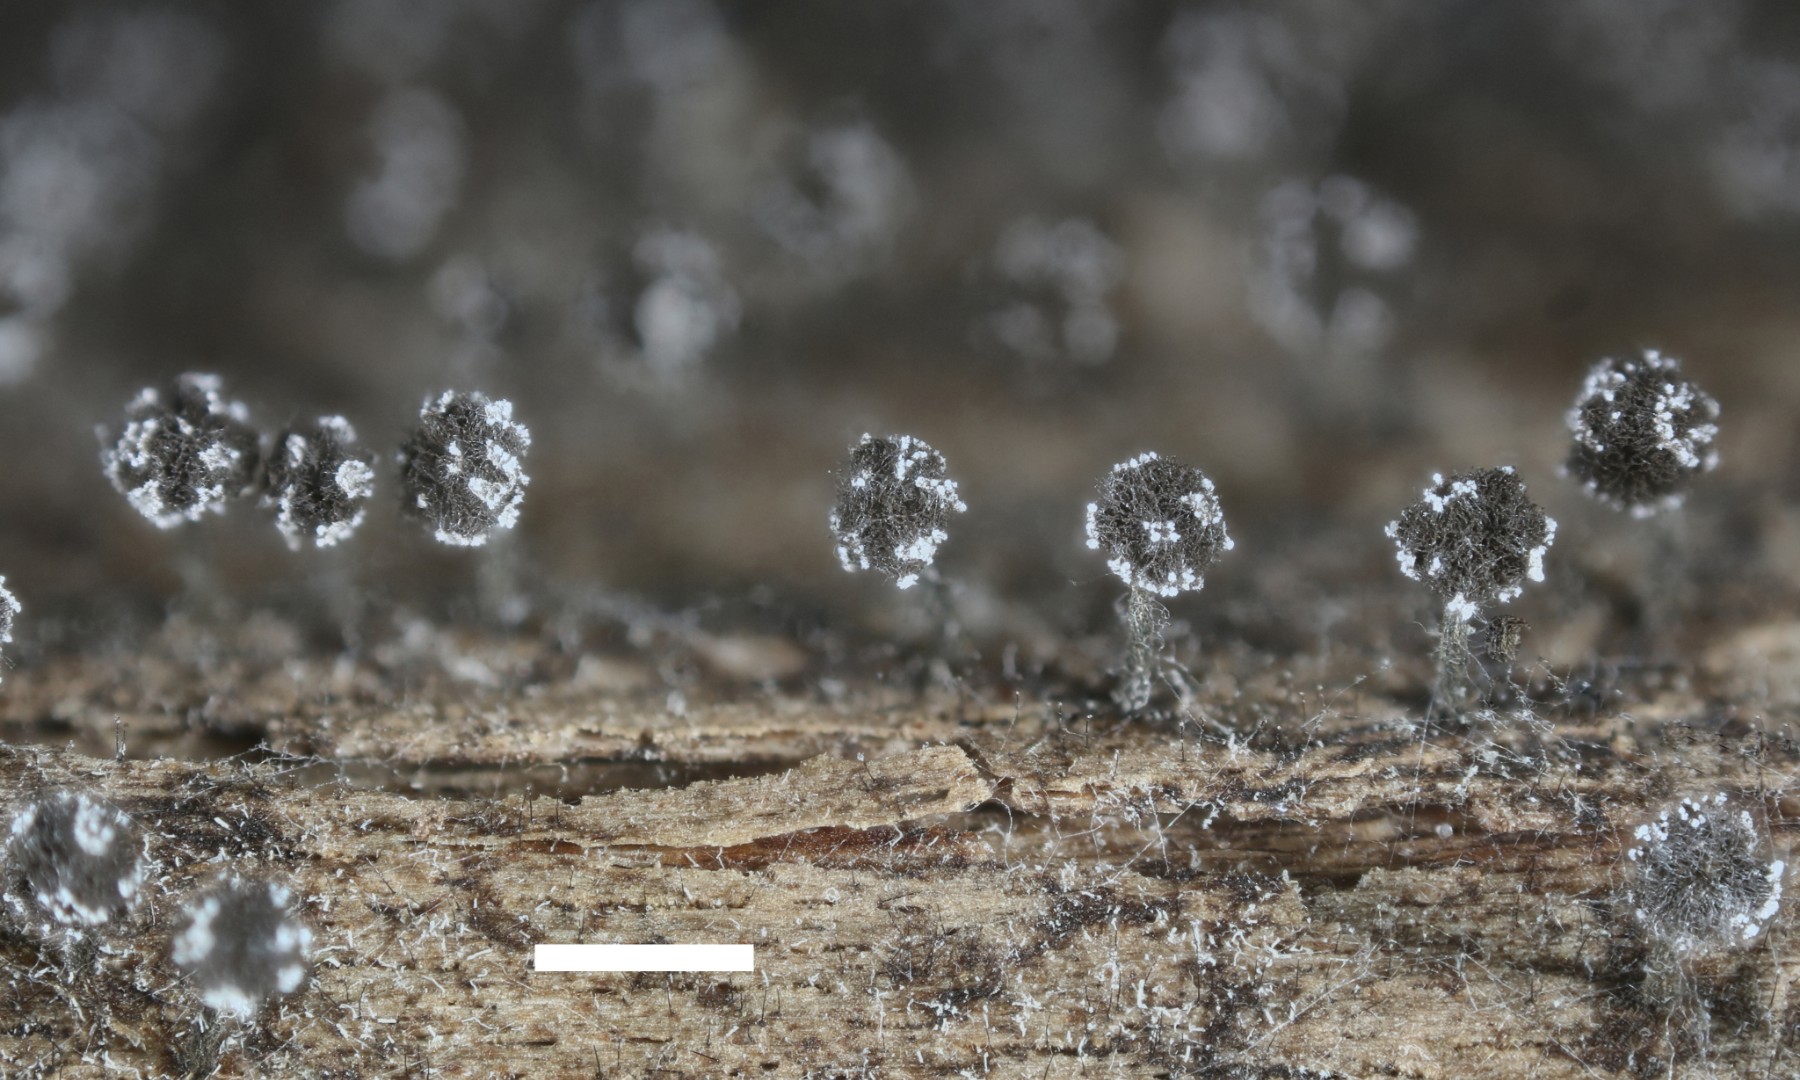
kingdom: Protozoa
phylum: Mycetozoa
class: Myxomycetes
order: Physarales
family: Physaraceae
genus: Physarum
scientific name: Physarum album
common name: nikkende støvknop
